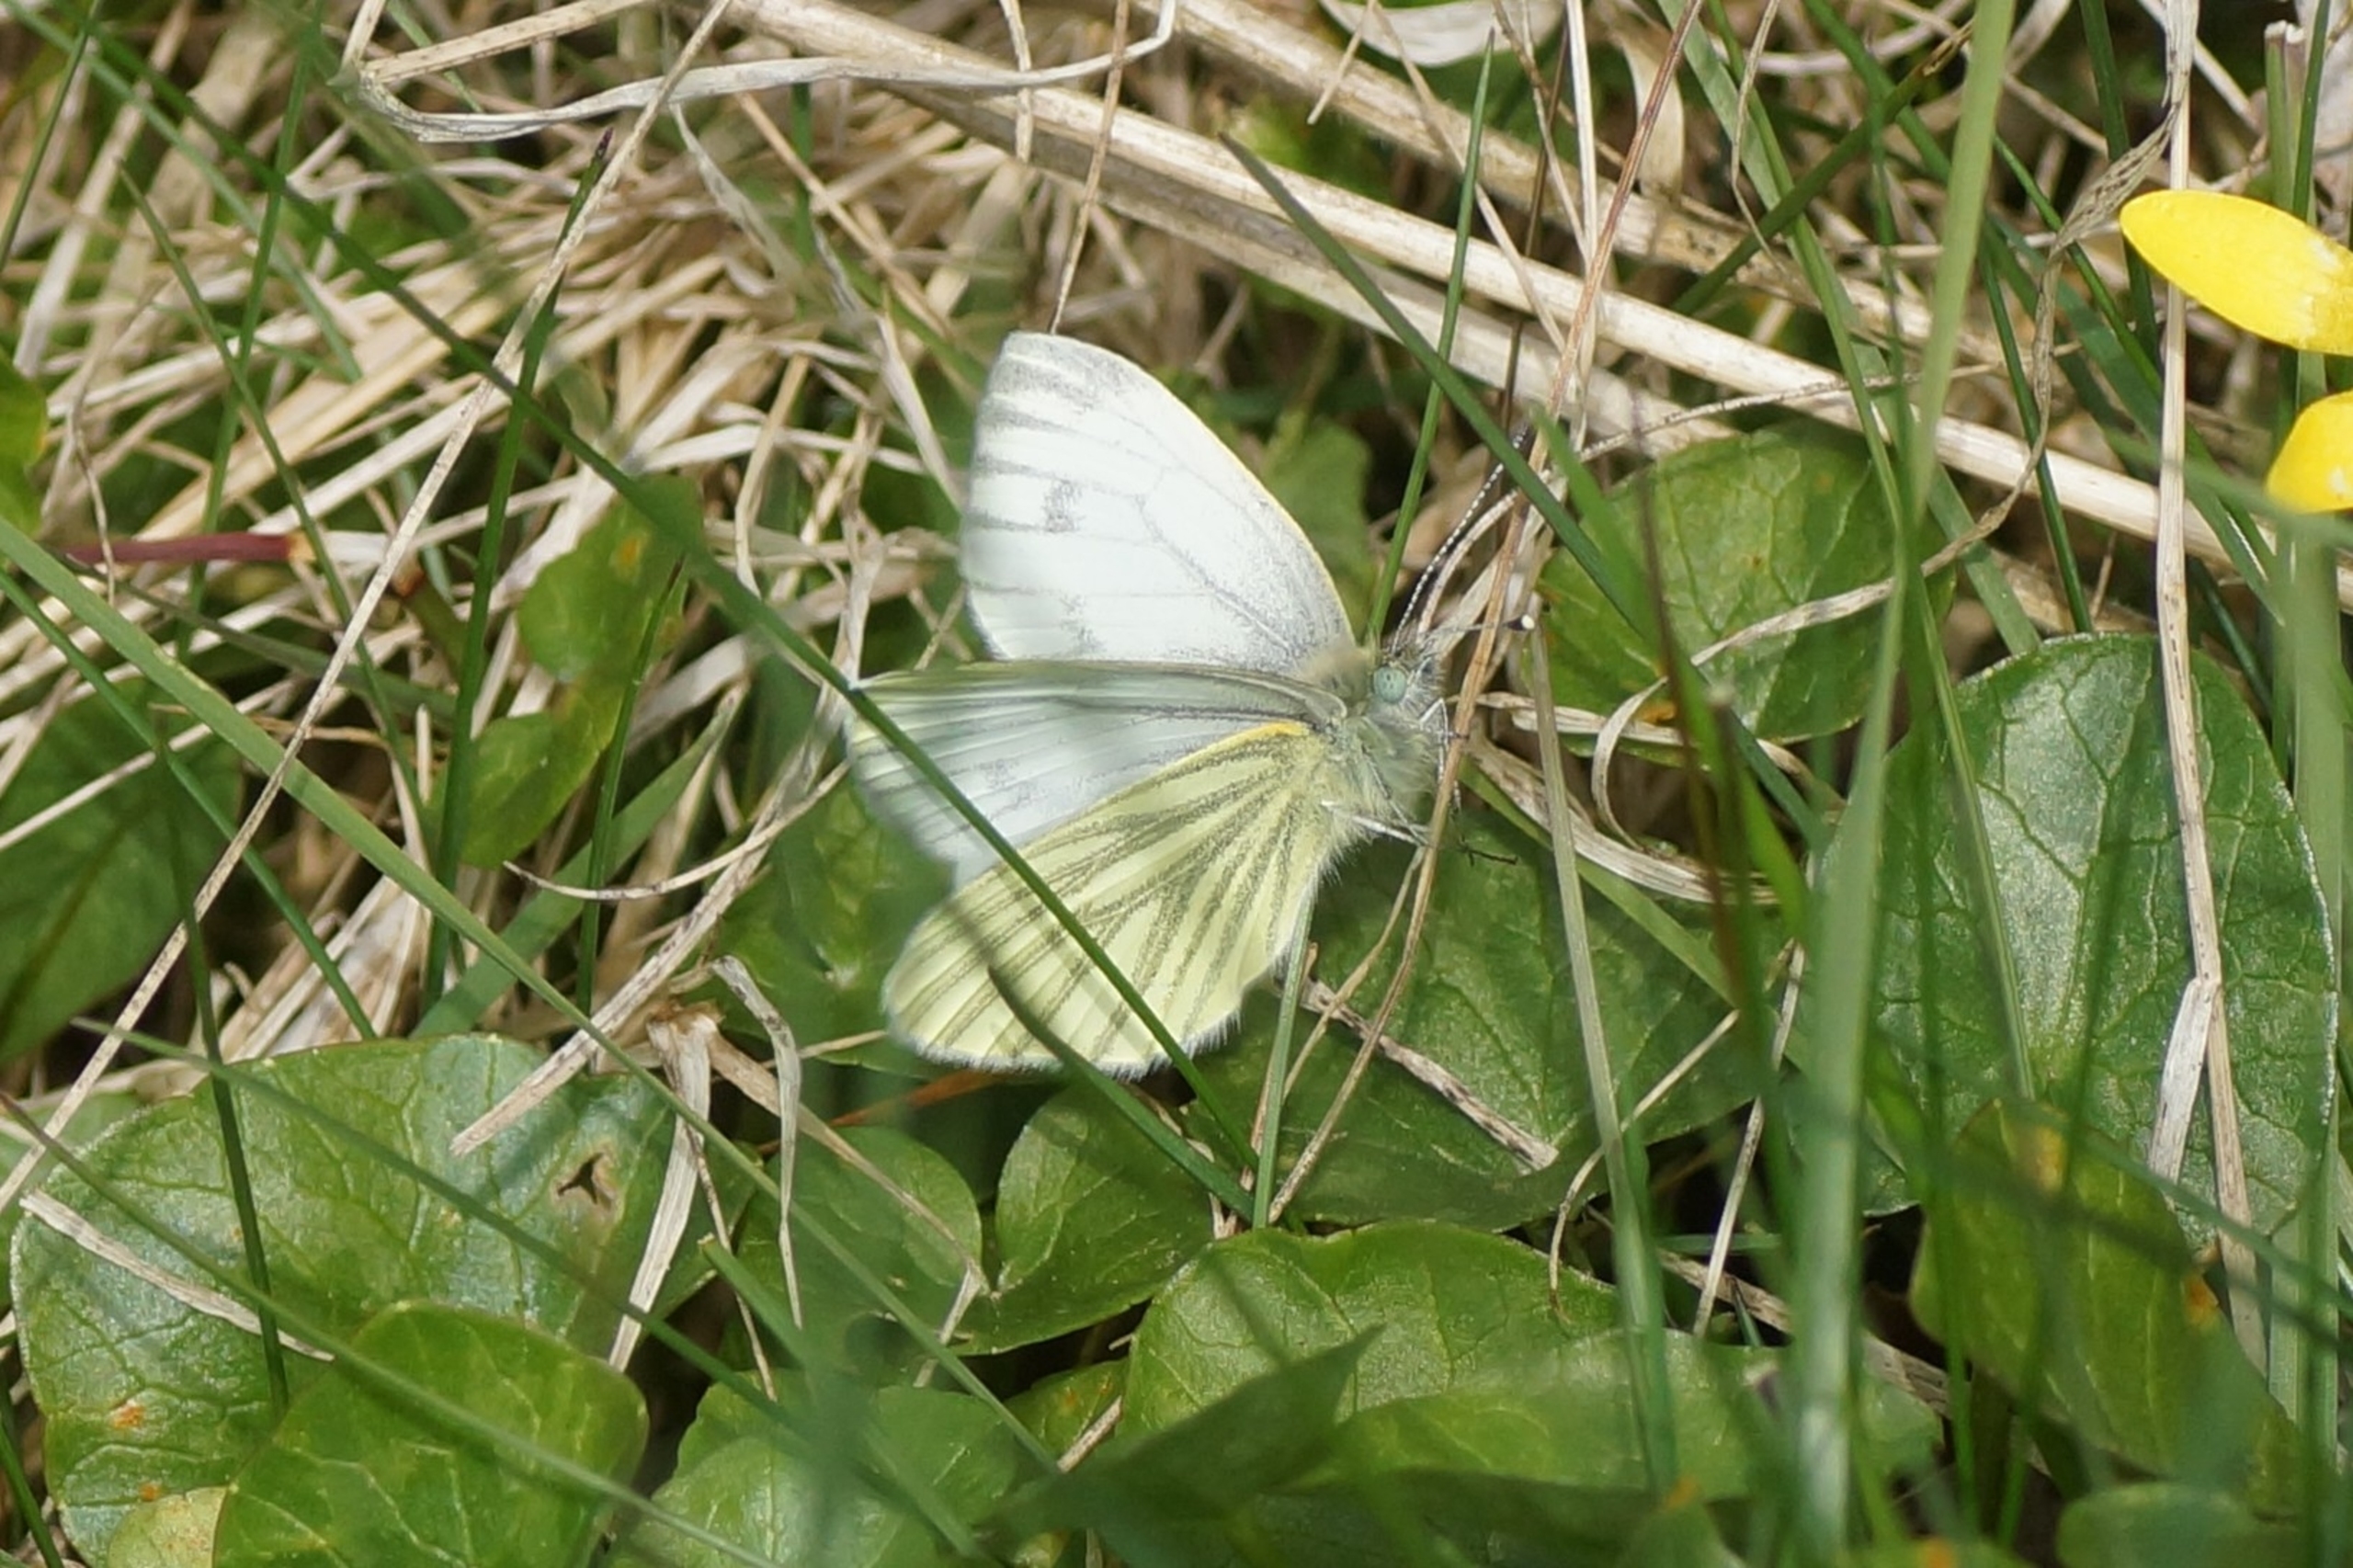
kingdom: Animalia
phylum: Arthropoda
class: Insecta
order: Lepidoptera
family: Pieridae
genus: Pieris
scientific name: Pieris napi
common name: Grønåret kålsommerfugl
